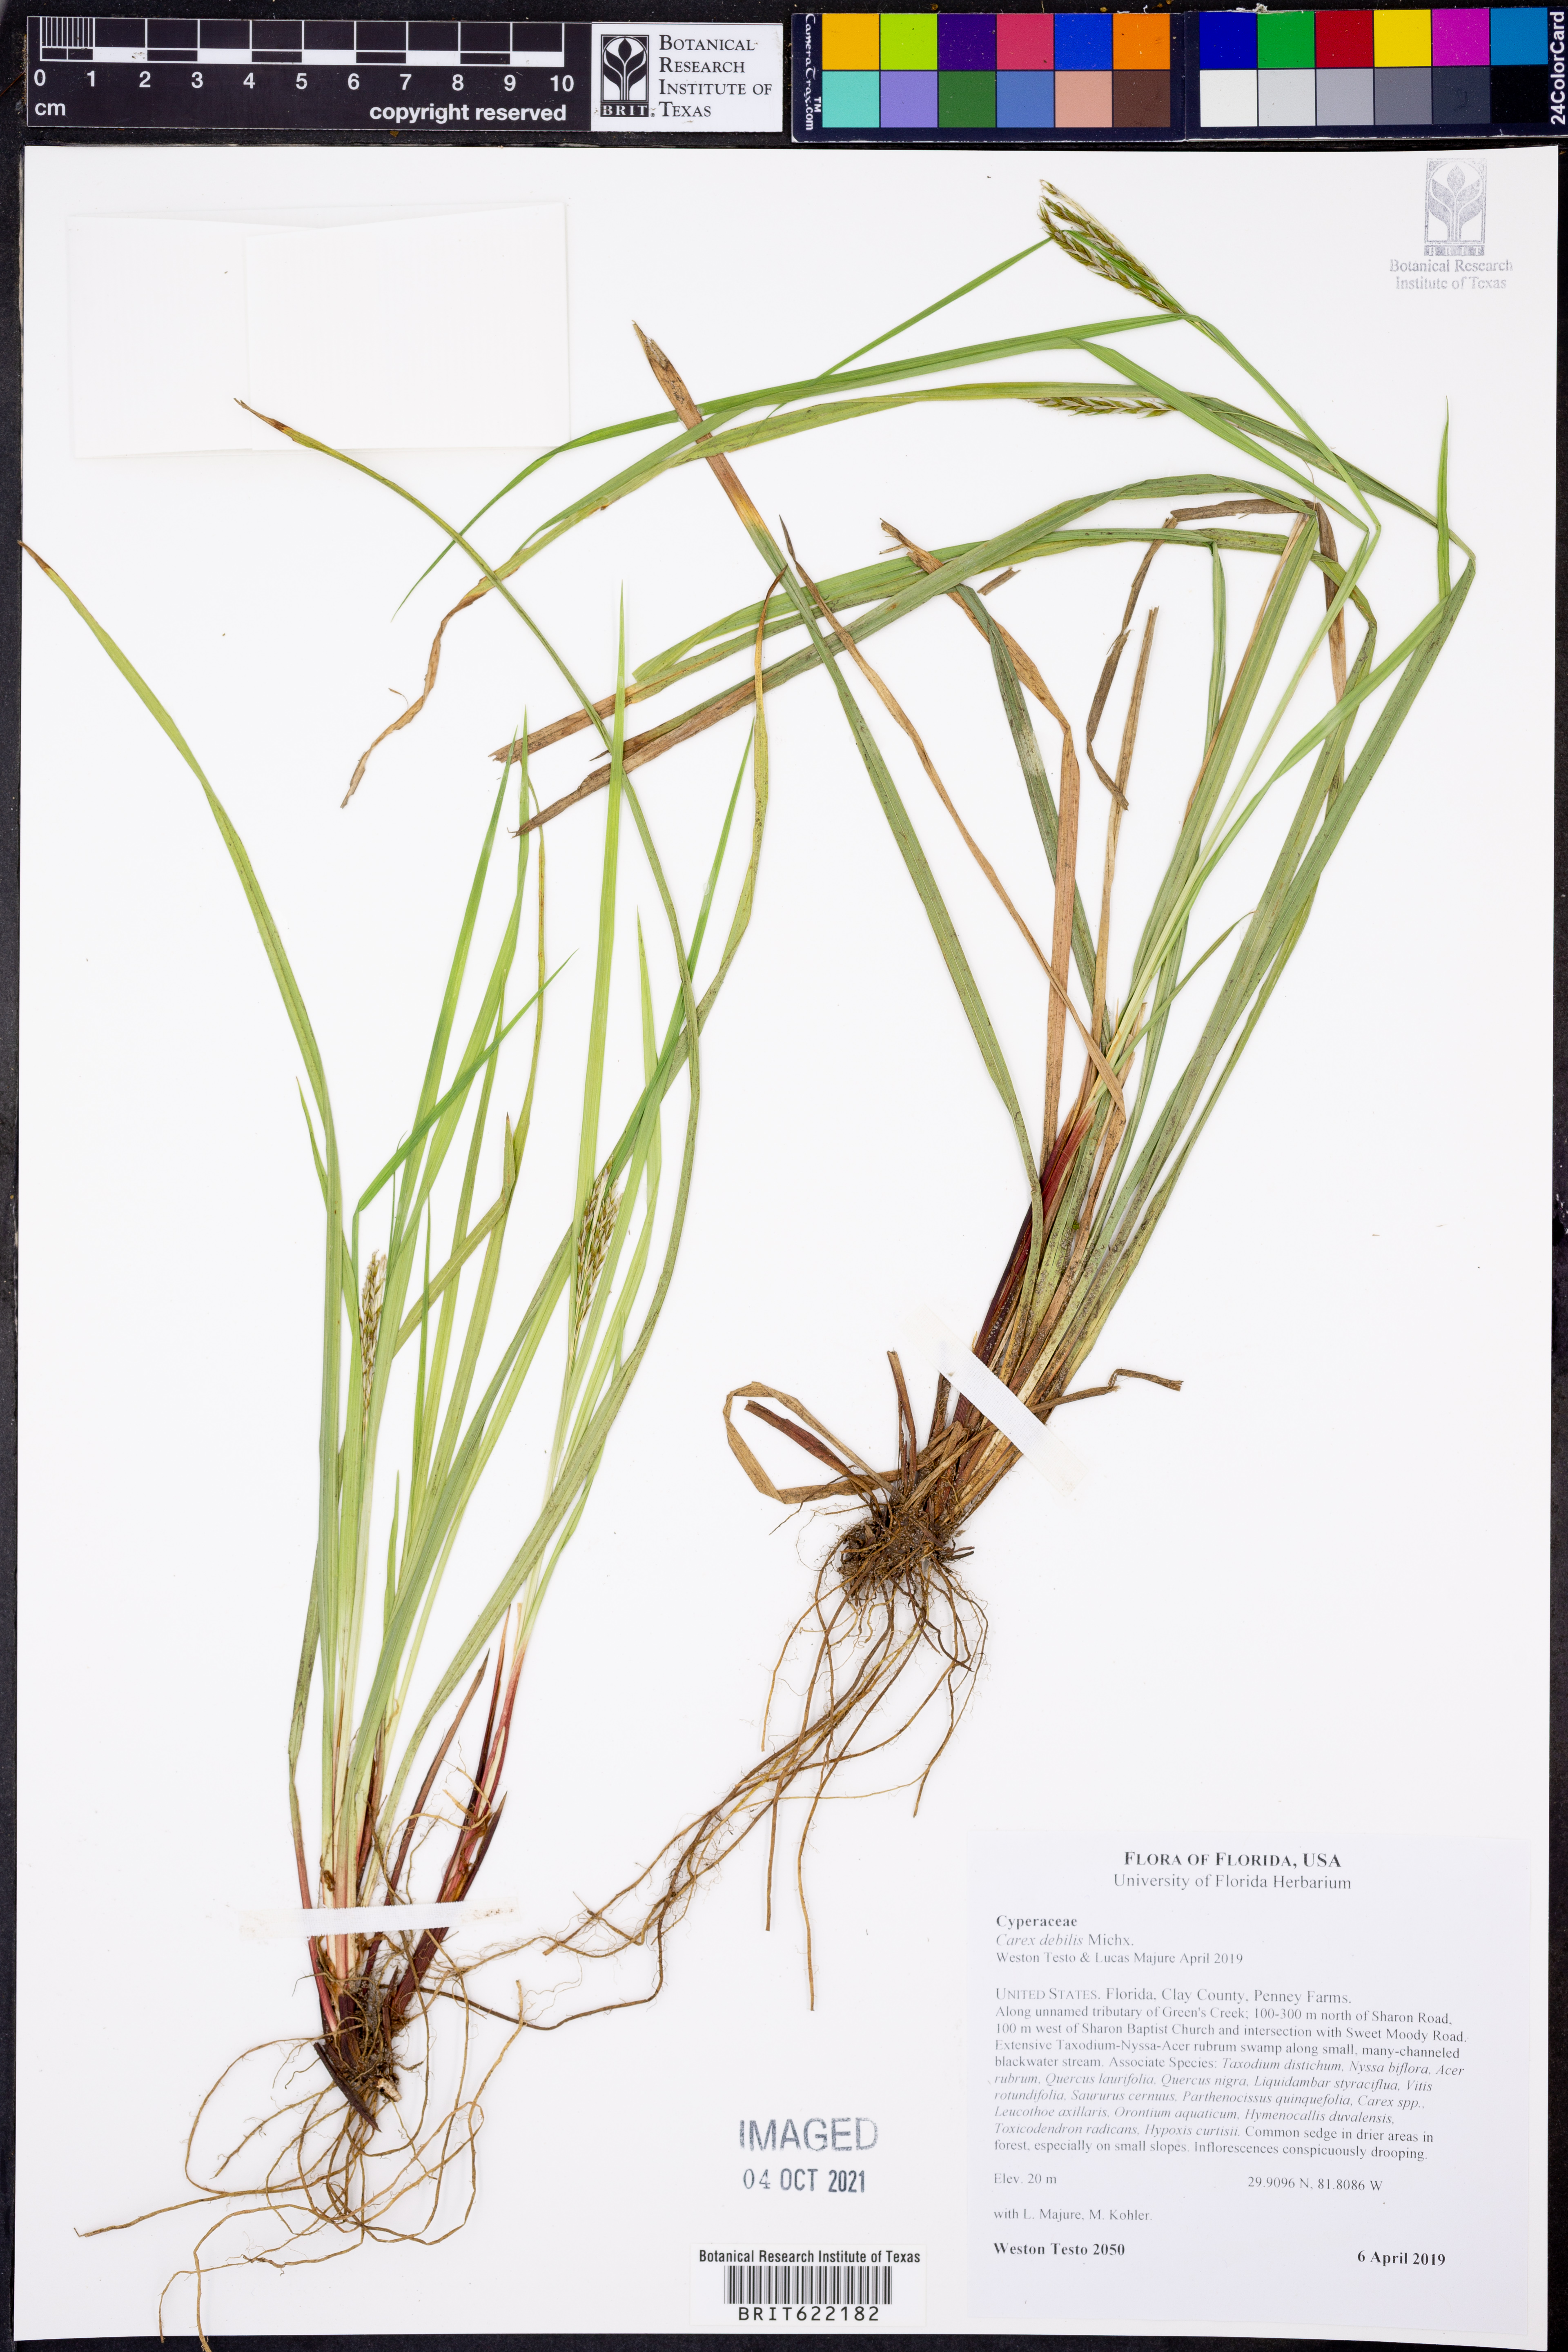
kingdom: Plantae
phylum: Tracheophyta
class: Liliopsida
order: Poales
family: Cyperaceae
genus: Carex
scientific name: Carex debilis
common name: White-edge sedge
